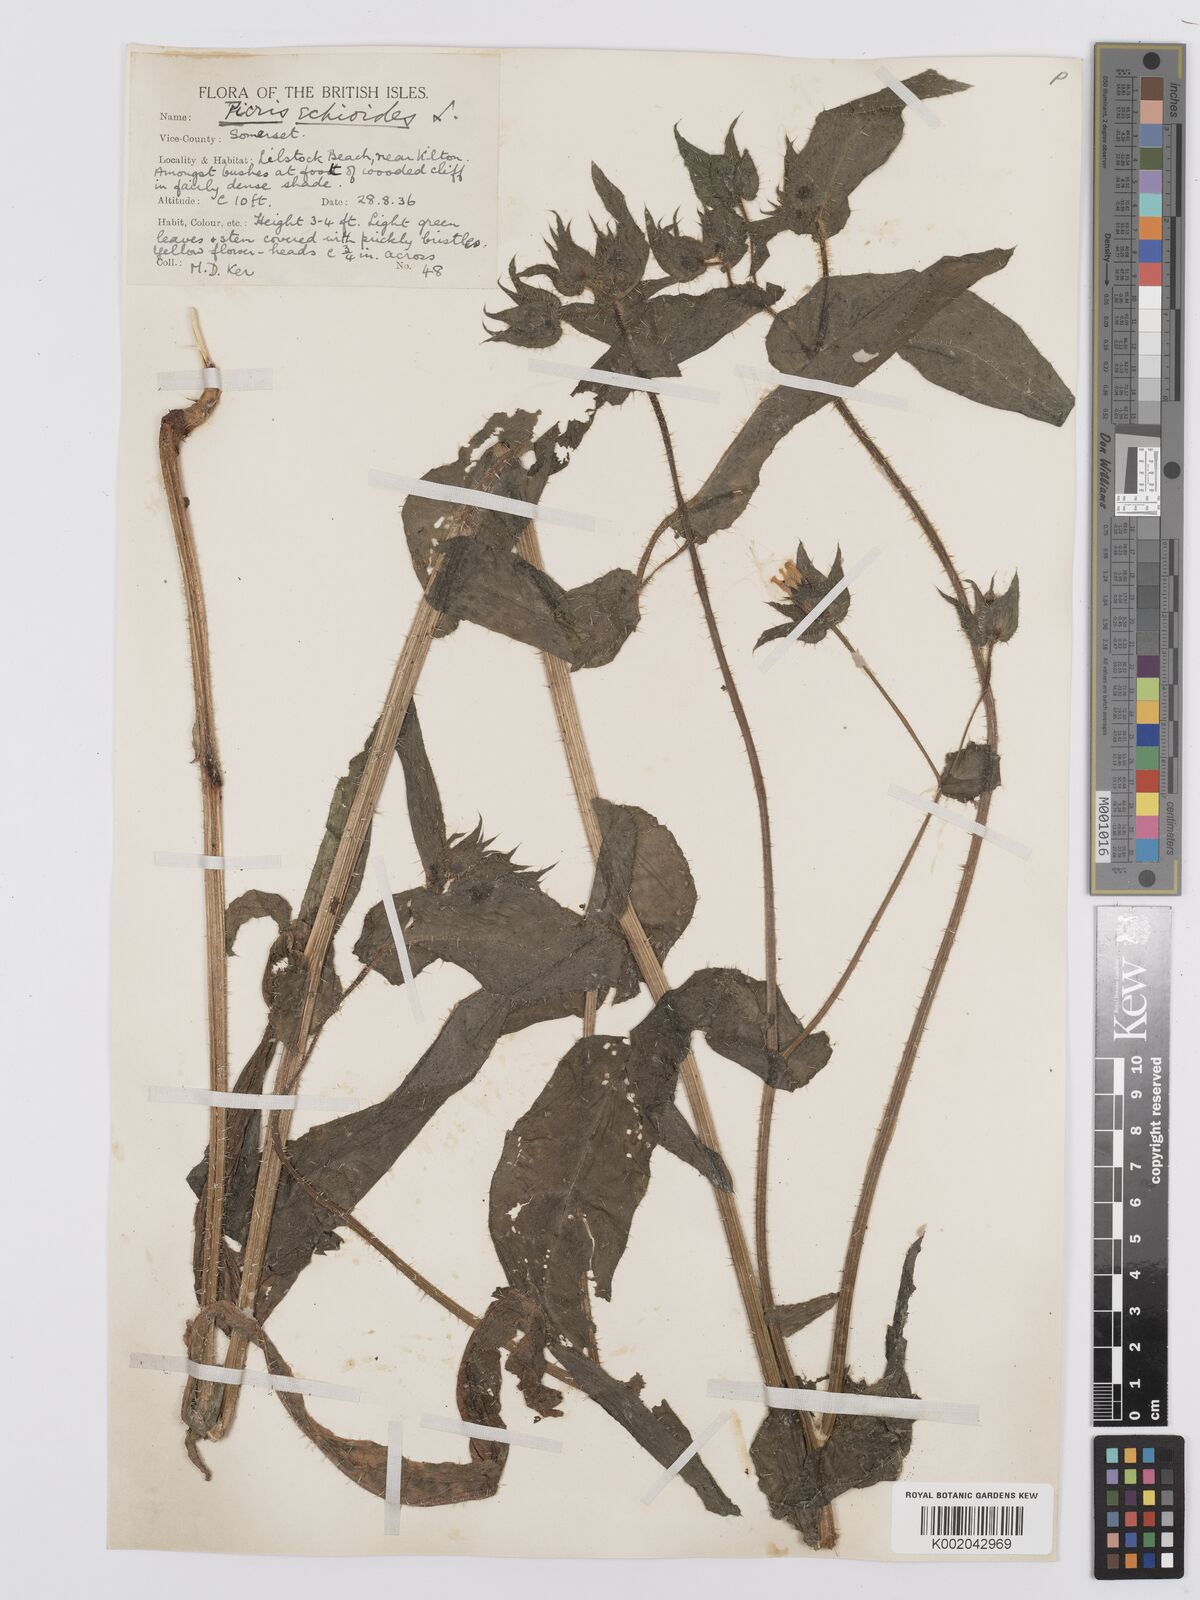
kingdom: Plantae
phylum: Tracheophyta
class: Magnoliopsida
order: Asterales
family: Asteraceae
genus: Helminthotheca
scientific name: Helminthotheca echioides
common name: Ox-tongue
